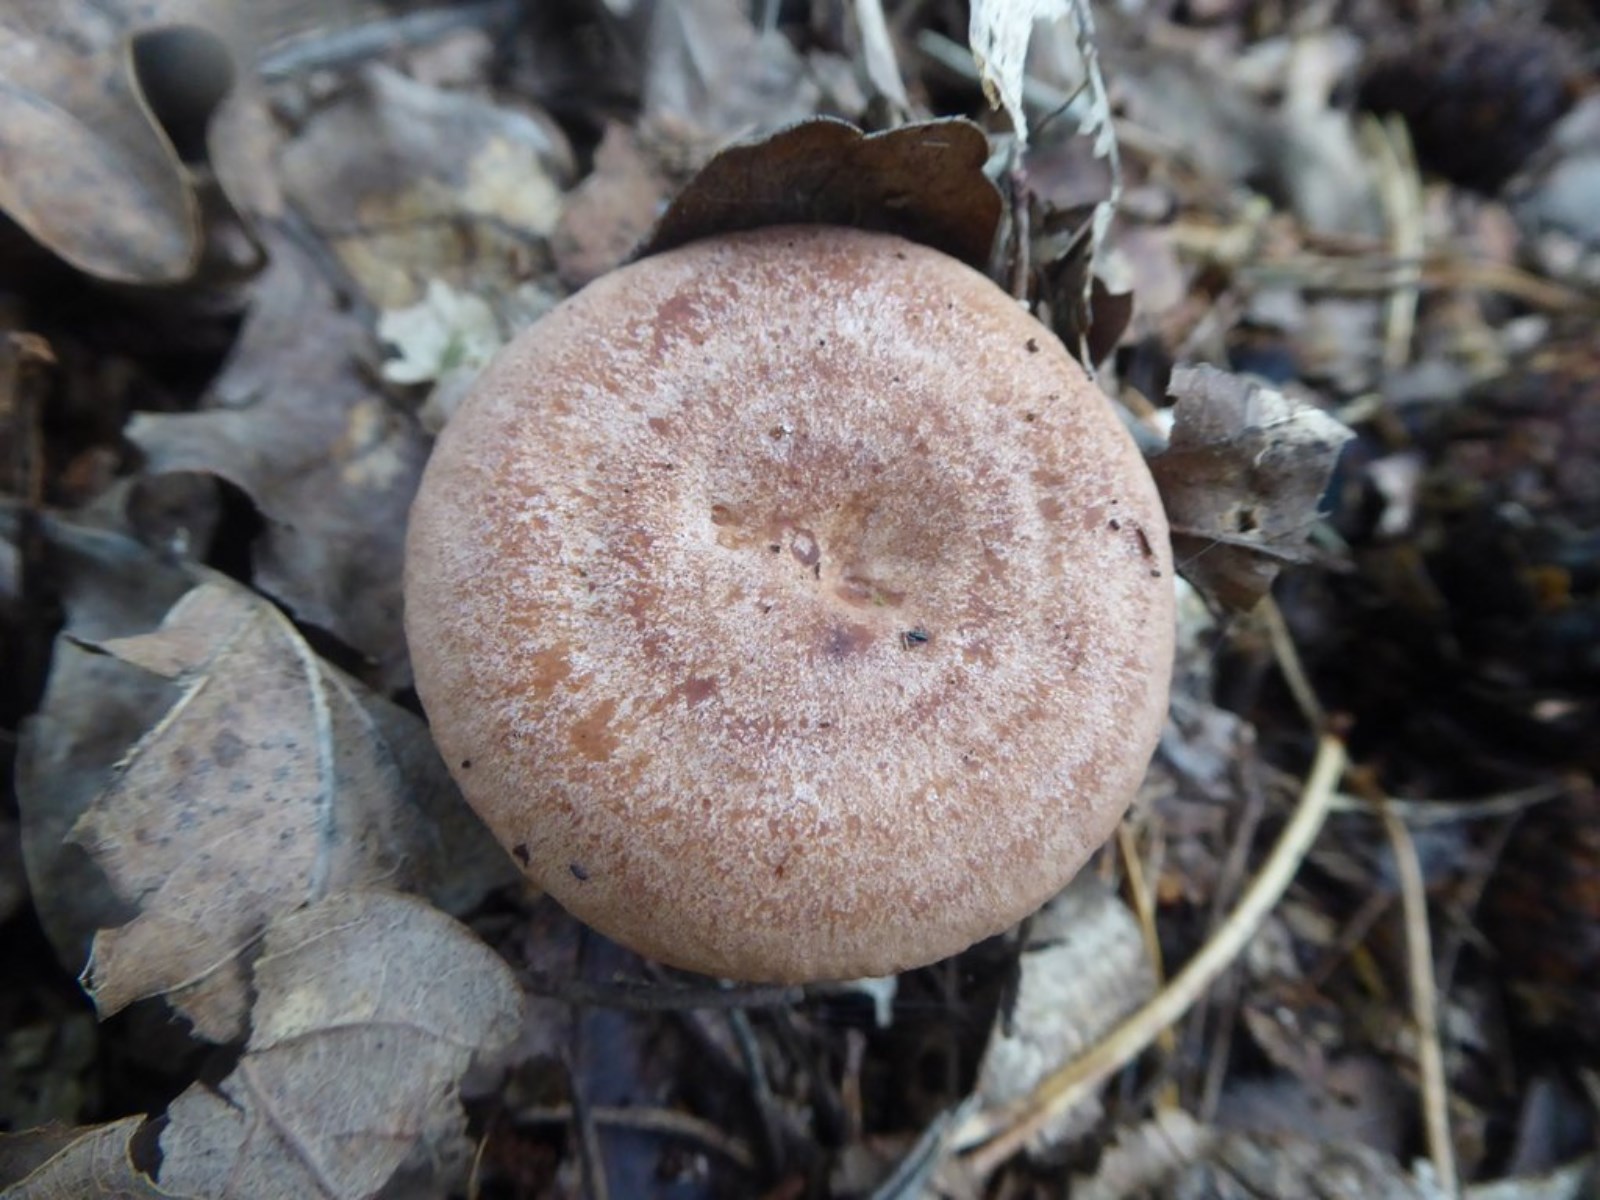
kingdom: Fungi
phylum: Basidiomycota
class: Agaricomycetes
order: Russulales
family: Russulaceae
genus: Lactarius
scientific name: Lactarius quietus
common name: ege-mælkehat
